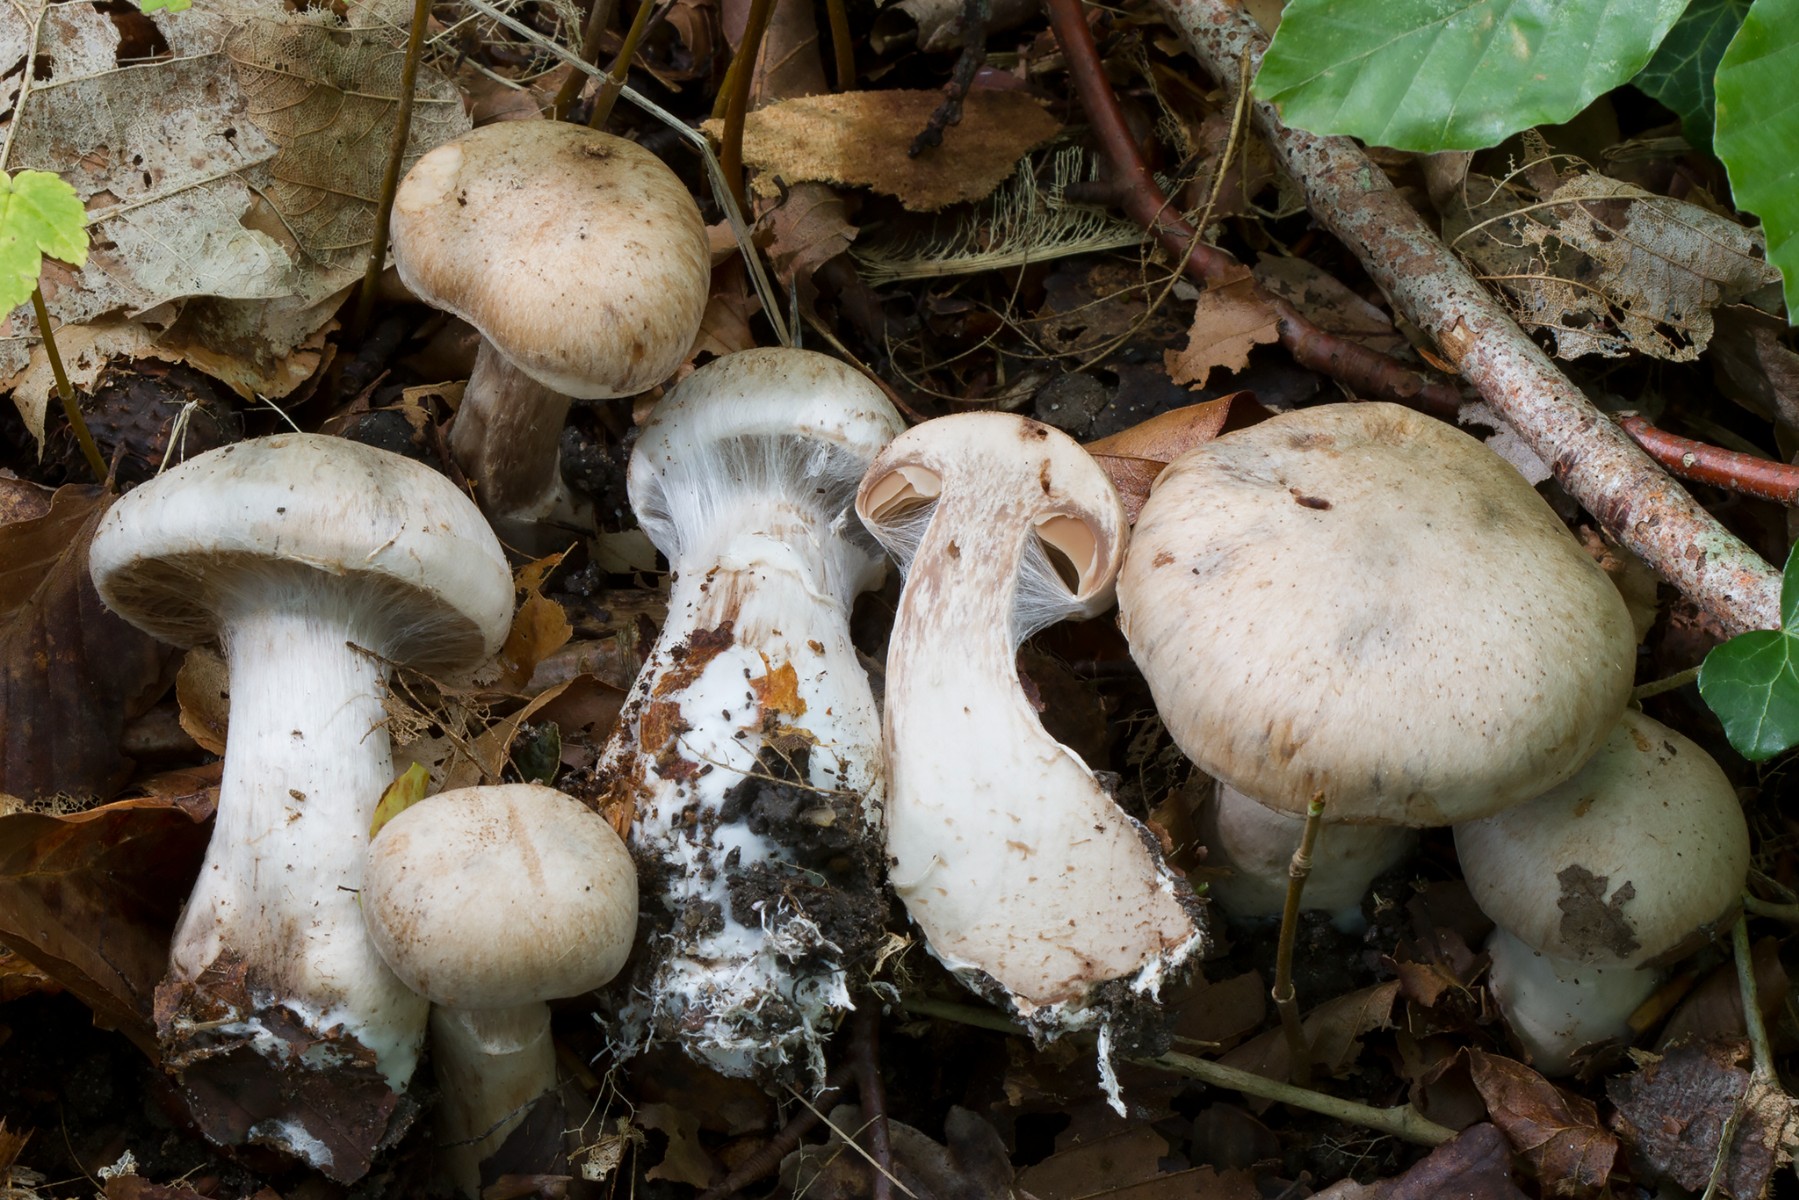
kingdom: Fungi
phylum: Basidiomycota
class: Agaricomycetes
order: Agaricales
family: Cortinariaceae
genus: Cortinarius
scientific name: Cortinarius sociatus
